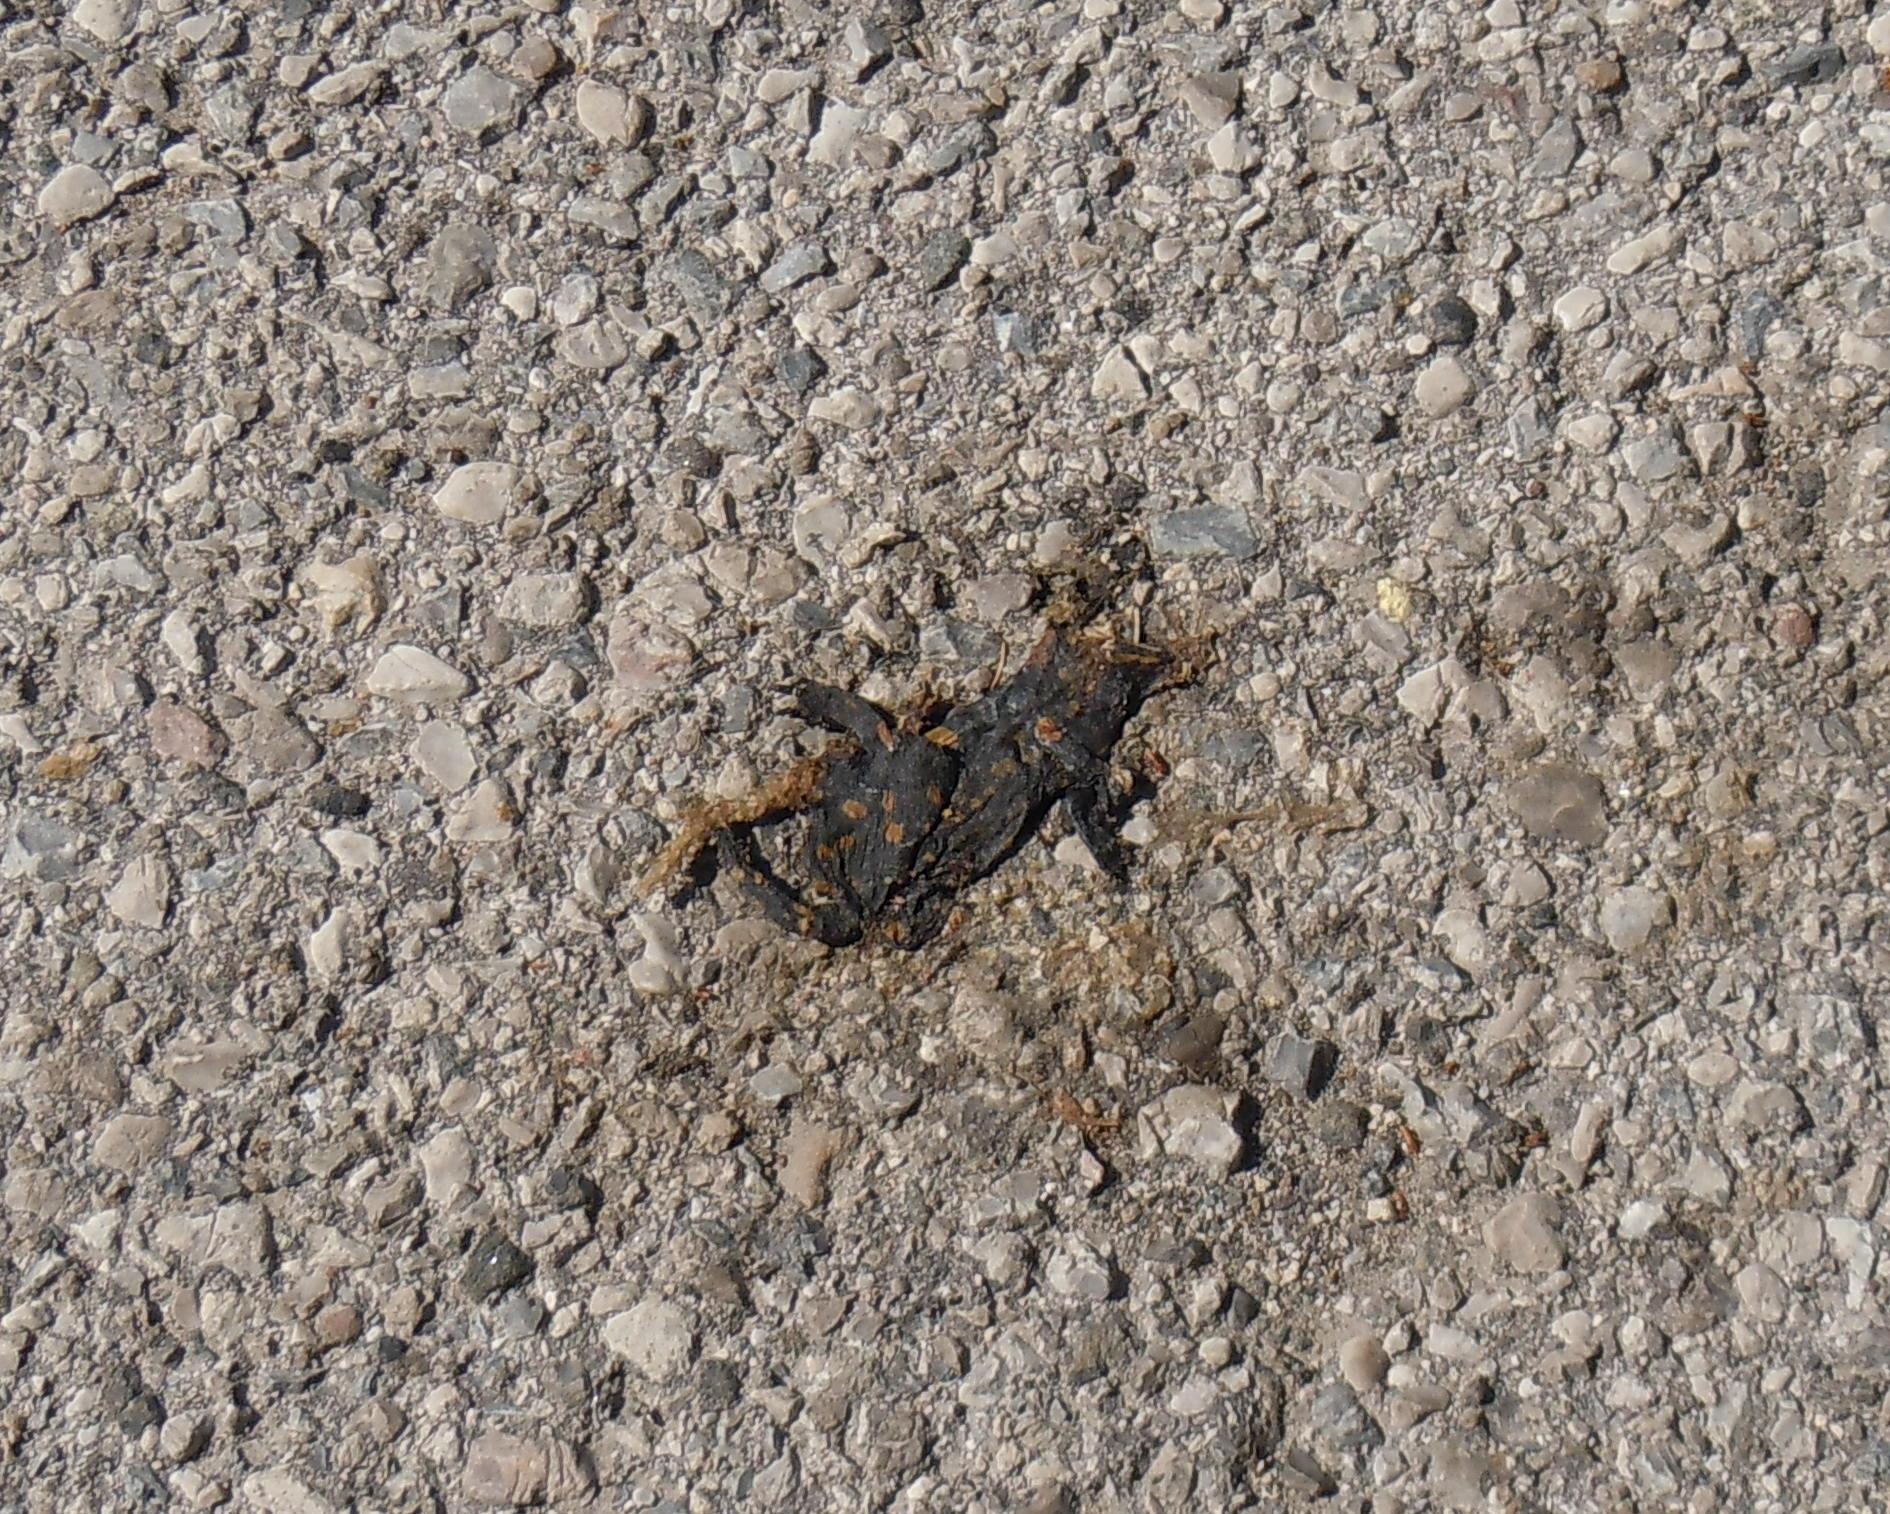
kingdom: Animalia
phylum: Chordata
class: Amphibia
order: Caudata
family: Salamandridae
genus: Salamandra
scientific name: Salamandra salamandra
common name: Fire salamander
